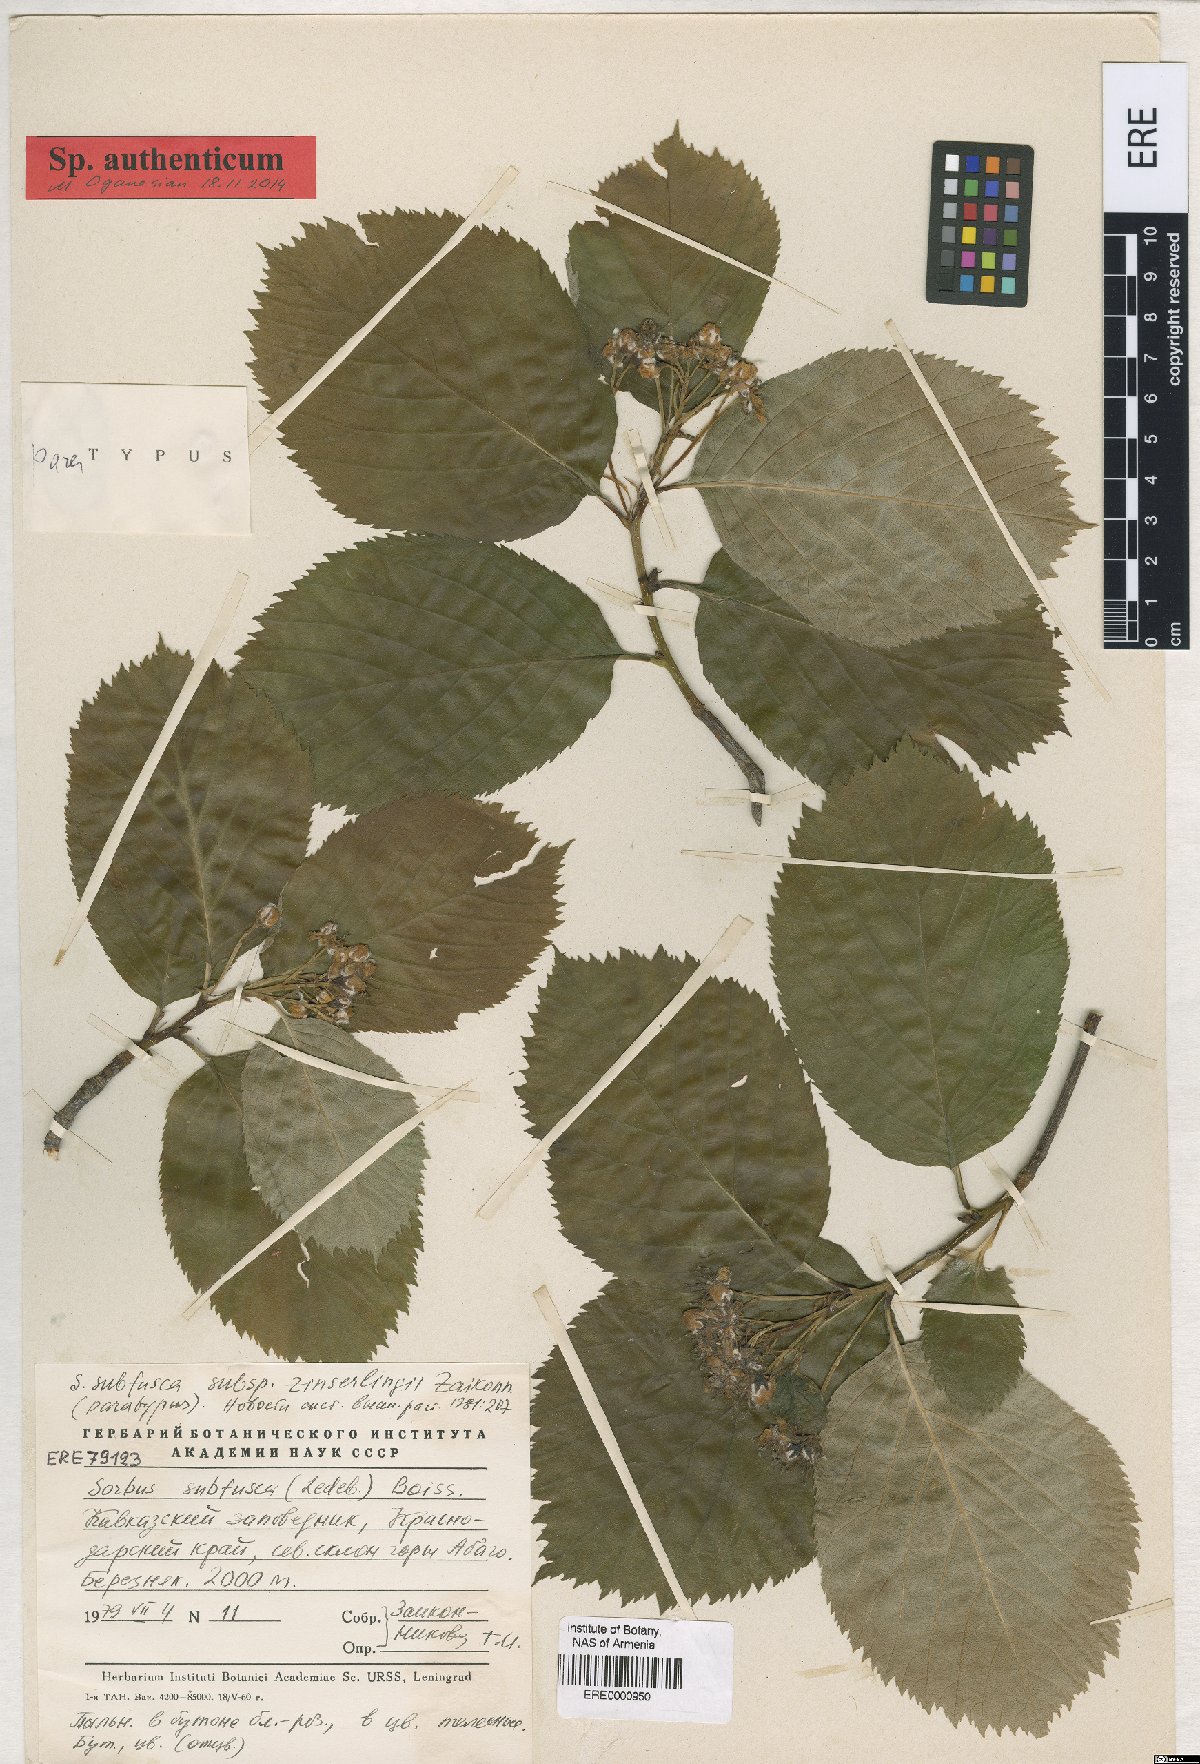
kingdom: Plantae
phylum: Tracheophyta
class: Magnoliopsida
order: Rosales
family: Rosaceae
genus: Sorbus
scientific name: Sorbus subfusca
